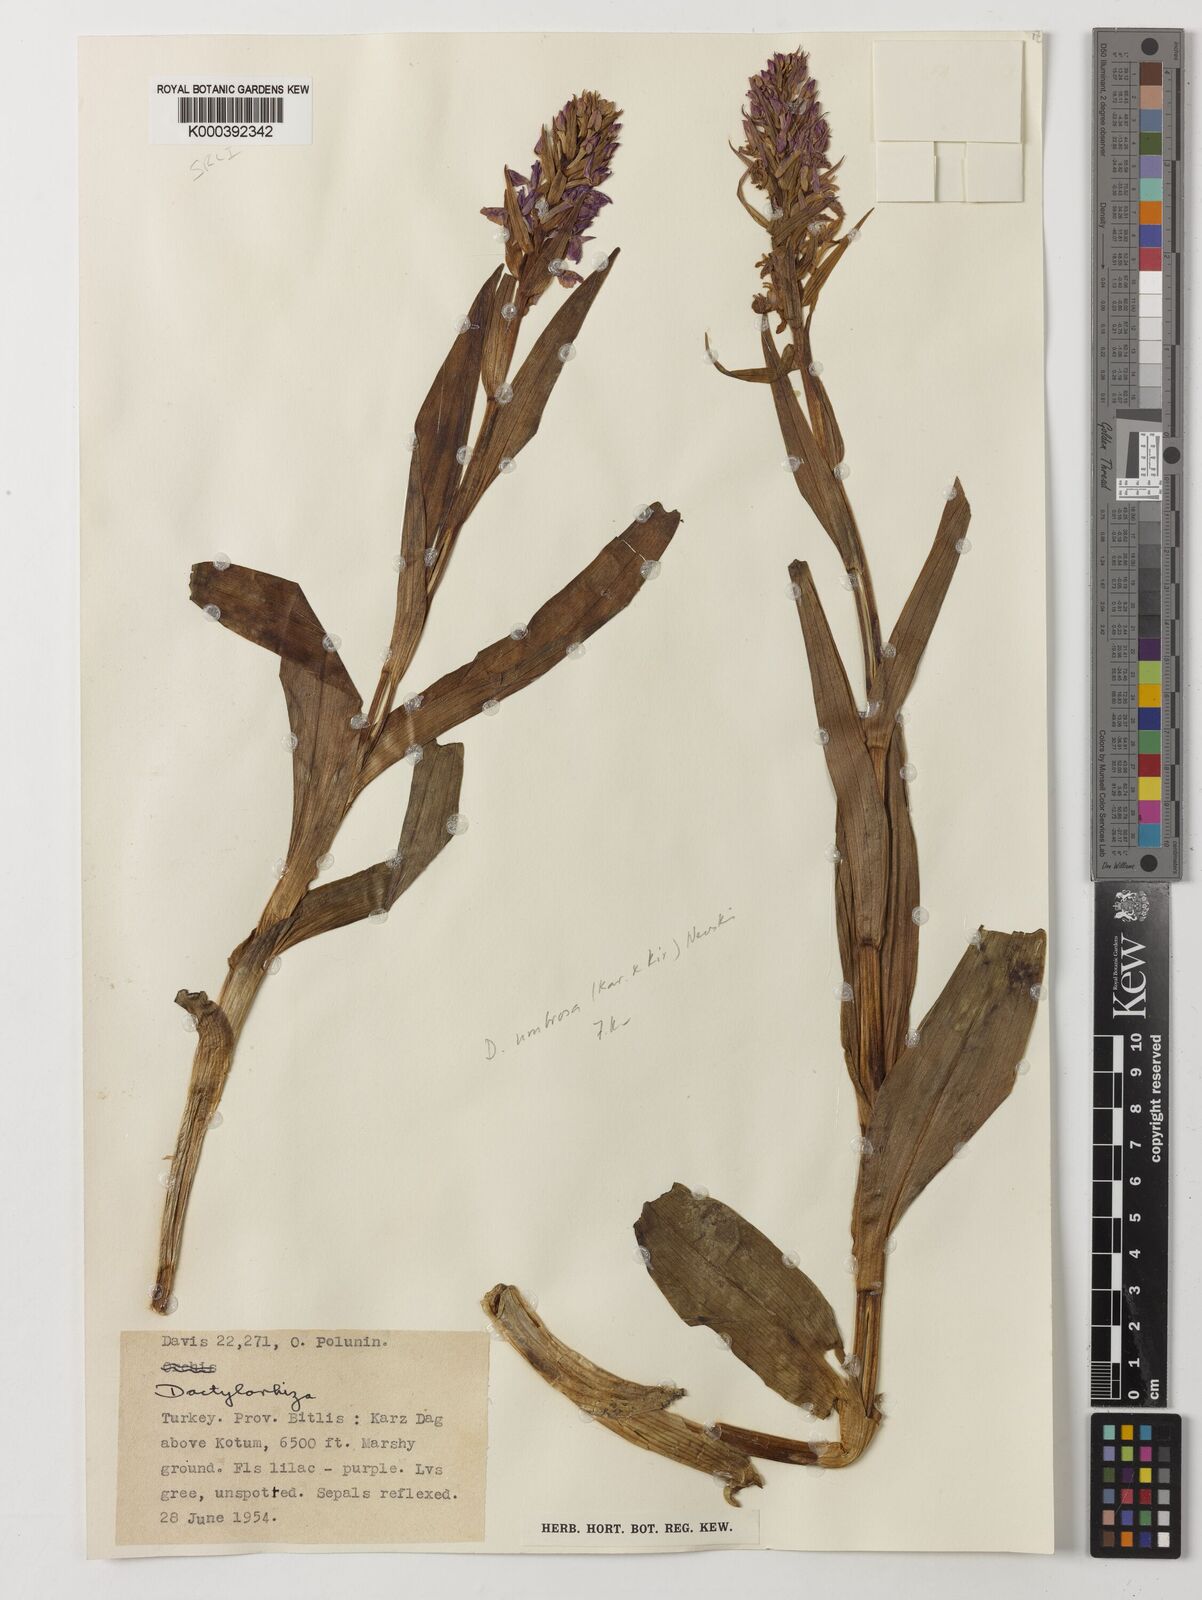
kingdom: Plantae
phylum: Tracheophyta
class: Liliopsida
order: Asparagales
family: Orchidaceae
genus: Dactylorhiza
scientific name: Dactylorhiza
